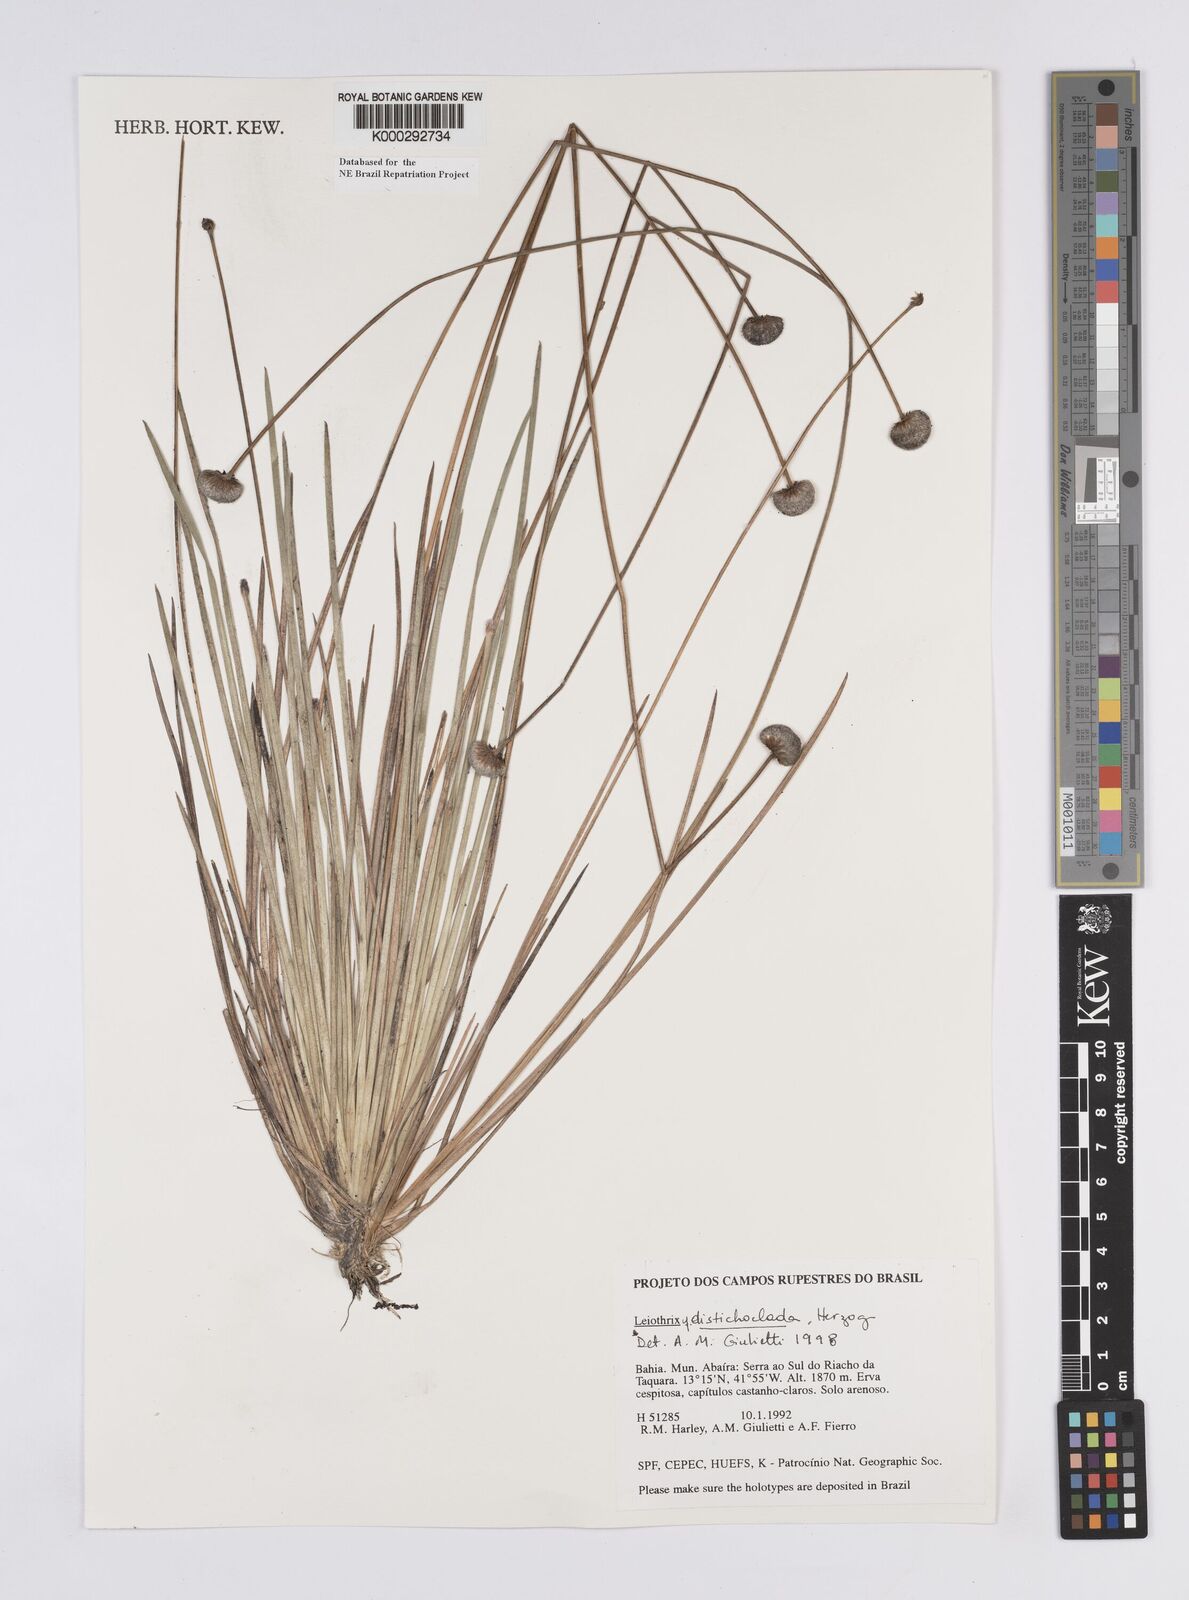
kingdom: Plantae
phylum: Tracheophyta
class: Liliopsida
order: Poales
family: Eriocaulaceae
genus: Leiothrix
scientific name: Leiothrix distichoclada
